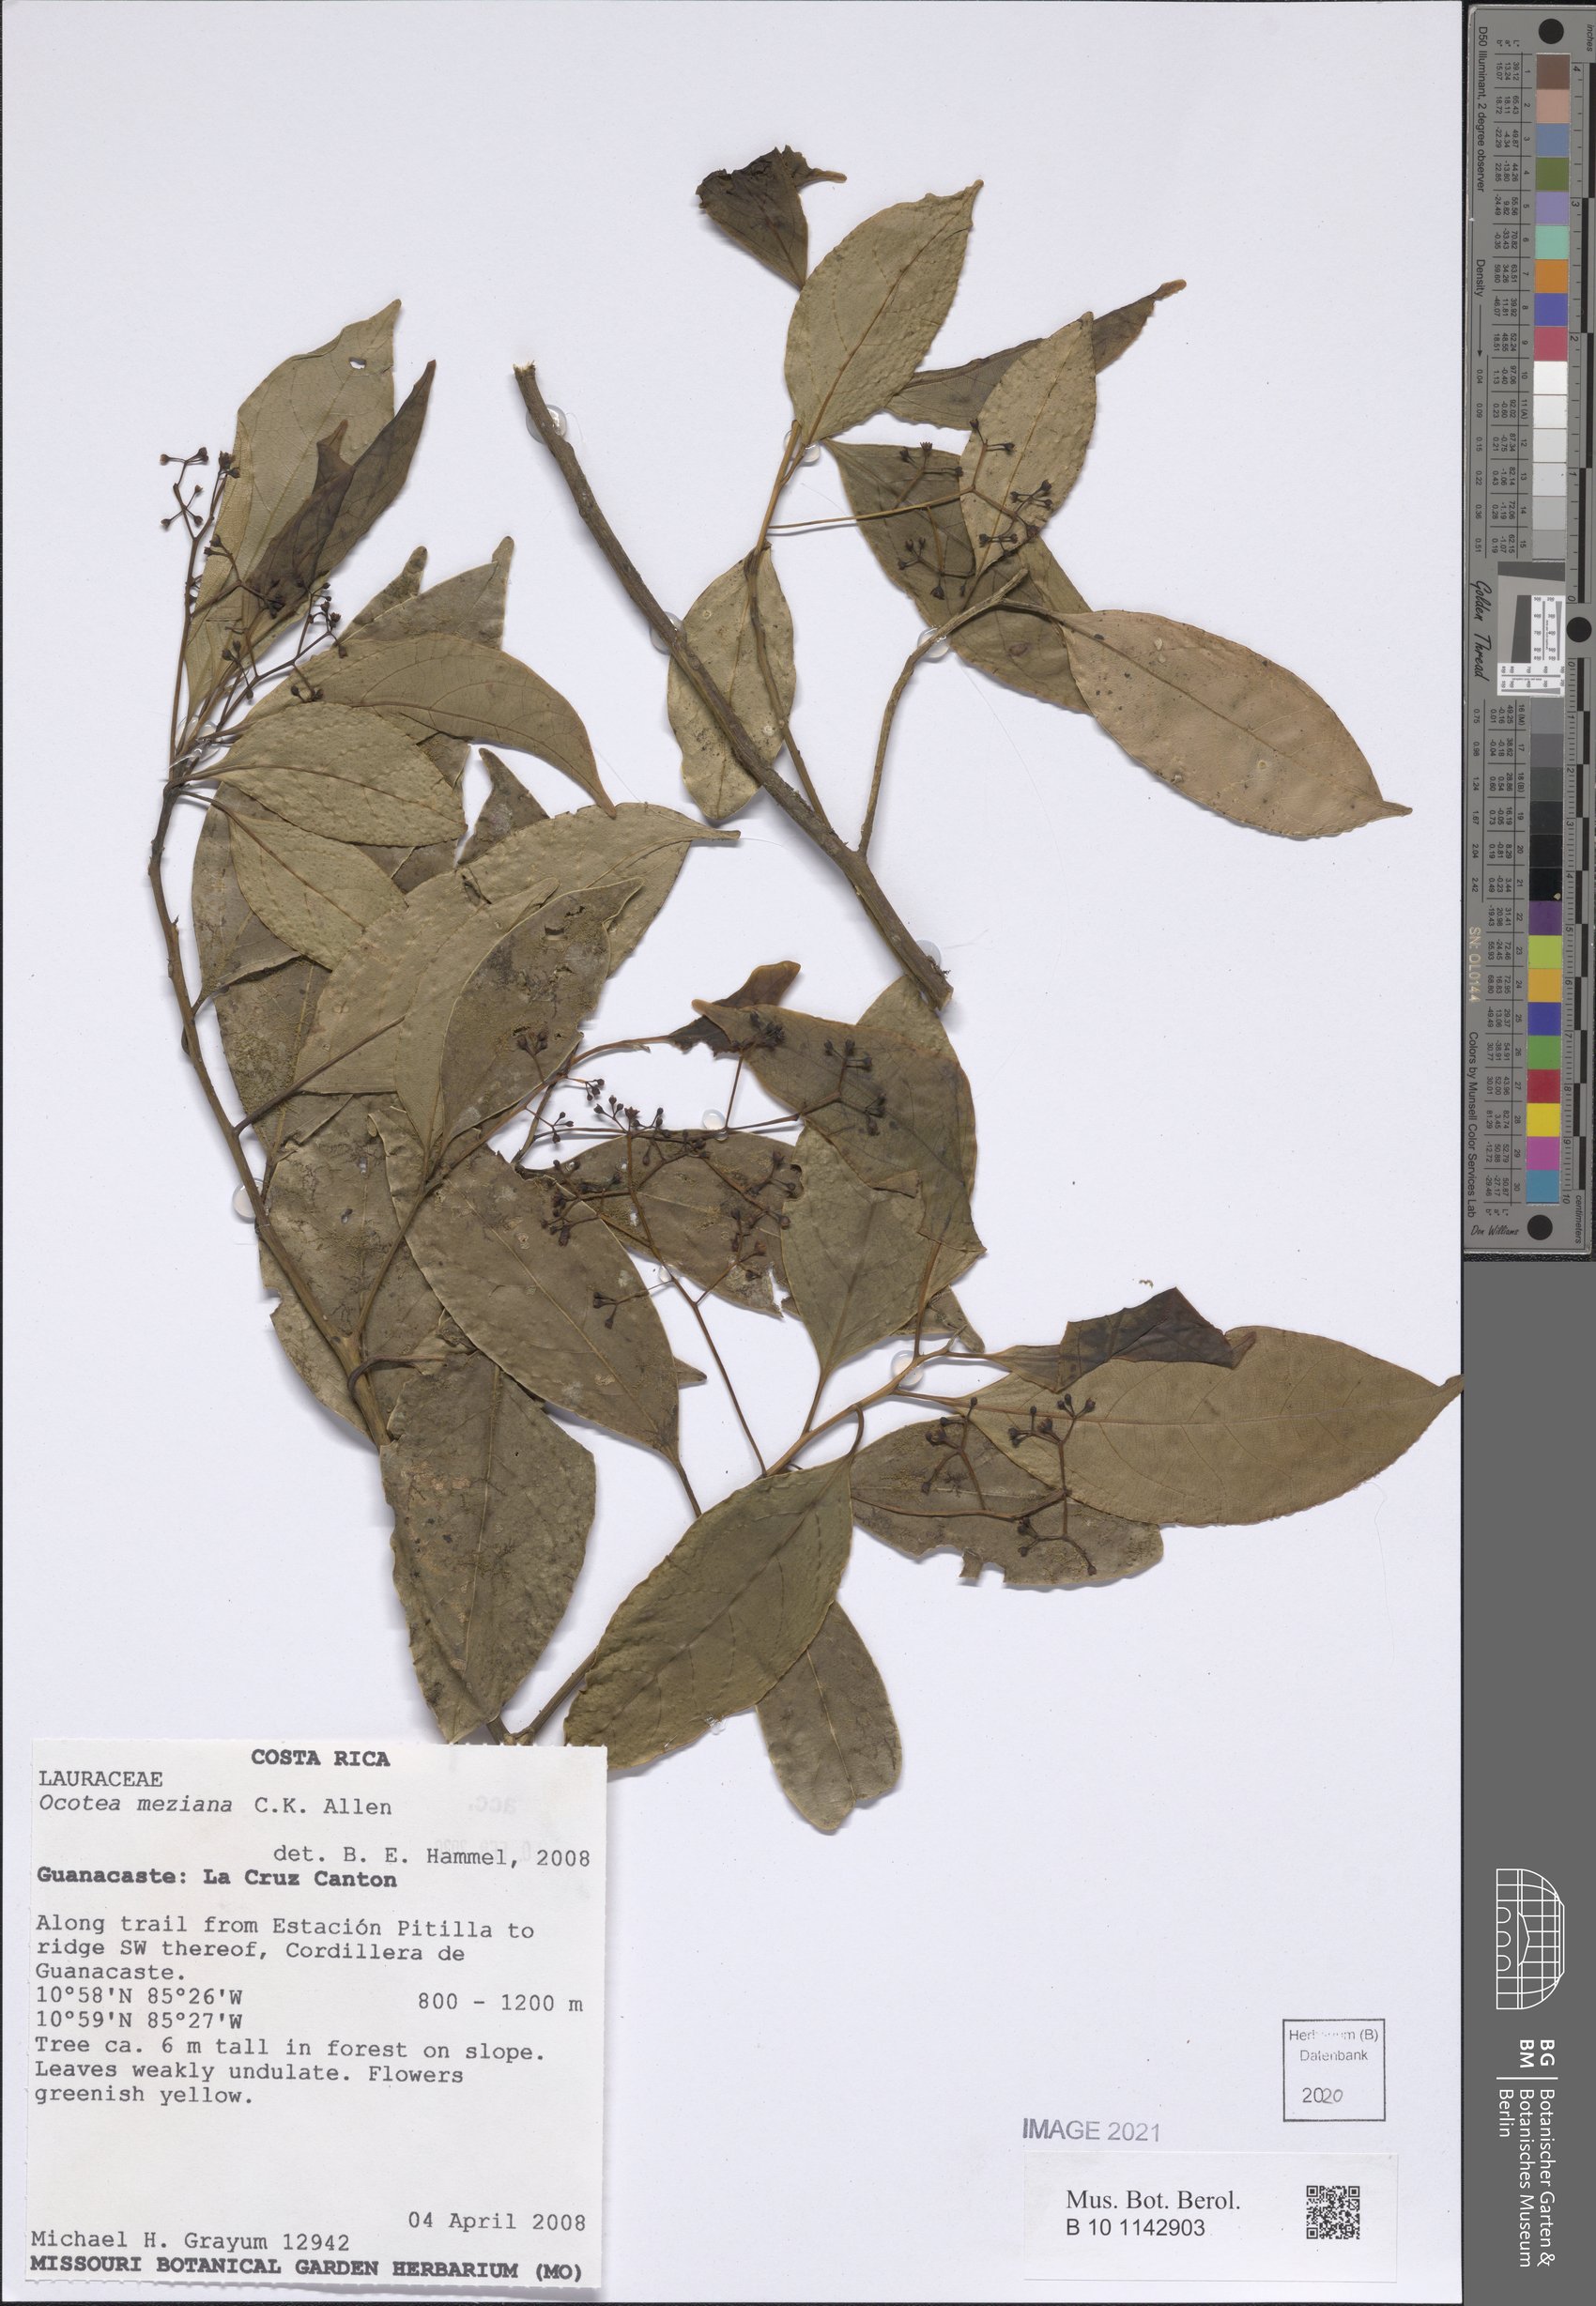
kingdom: Plantae
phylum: Tracheophyta
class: Magnoliopsida
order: Laurales
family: Lauraceae
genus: Ocotea
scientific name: Ocotea meziana
